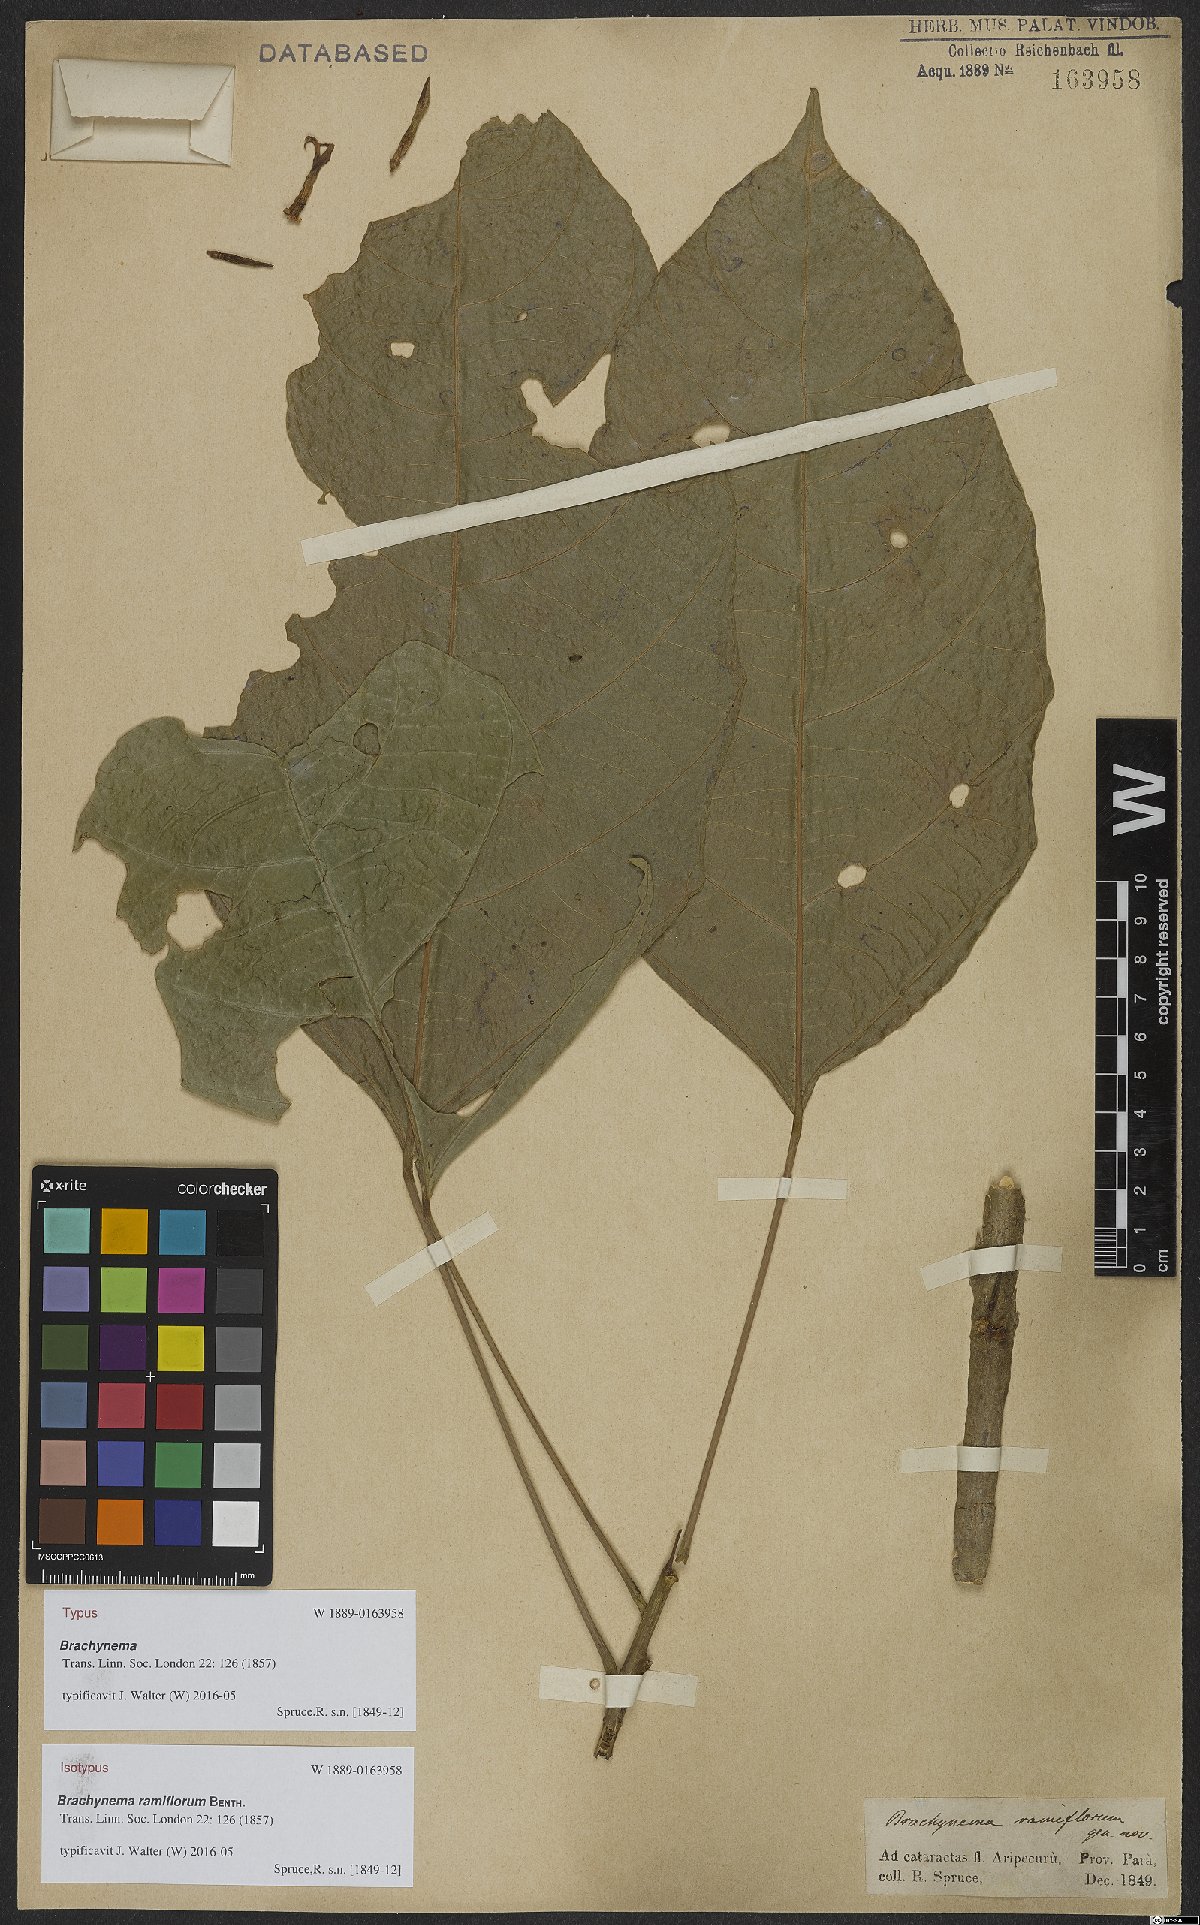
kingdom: Plantae
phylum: Tracheophyta
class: Magnoliopsida
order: Santalales
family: Erythropalaceae
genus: Brachynema
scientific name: Brachynema ramiflorum
